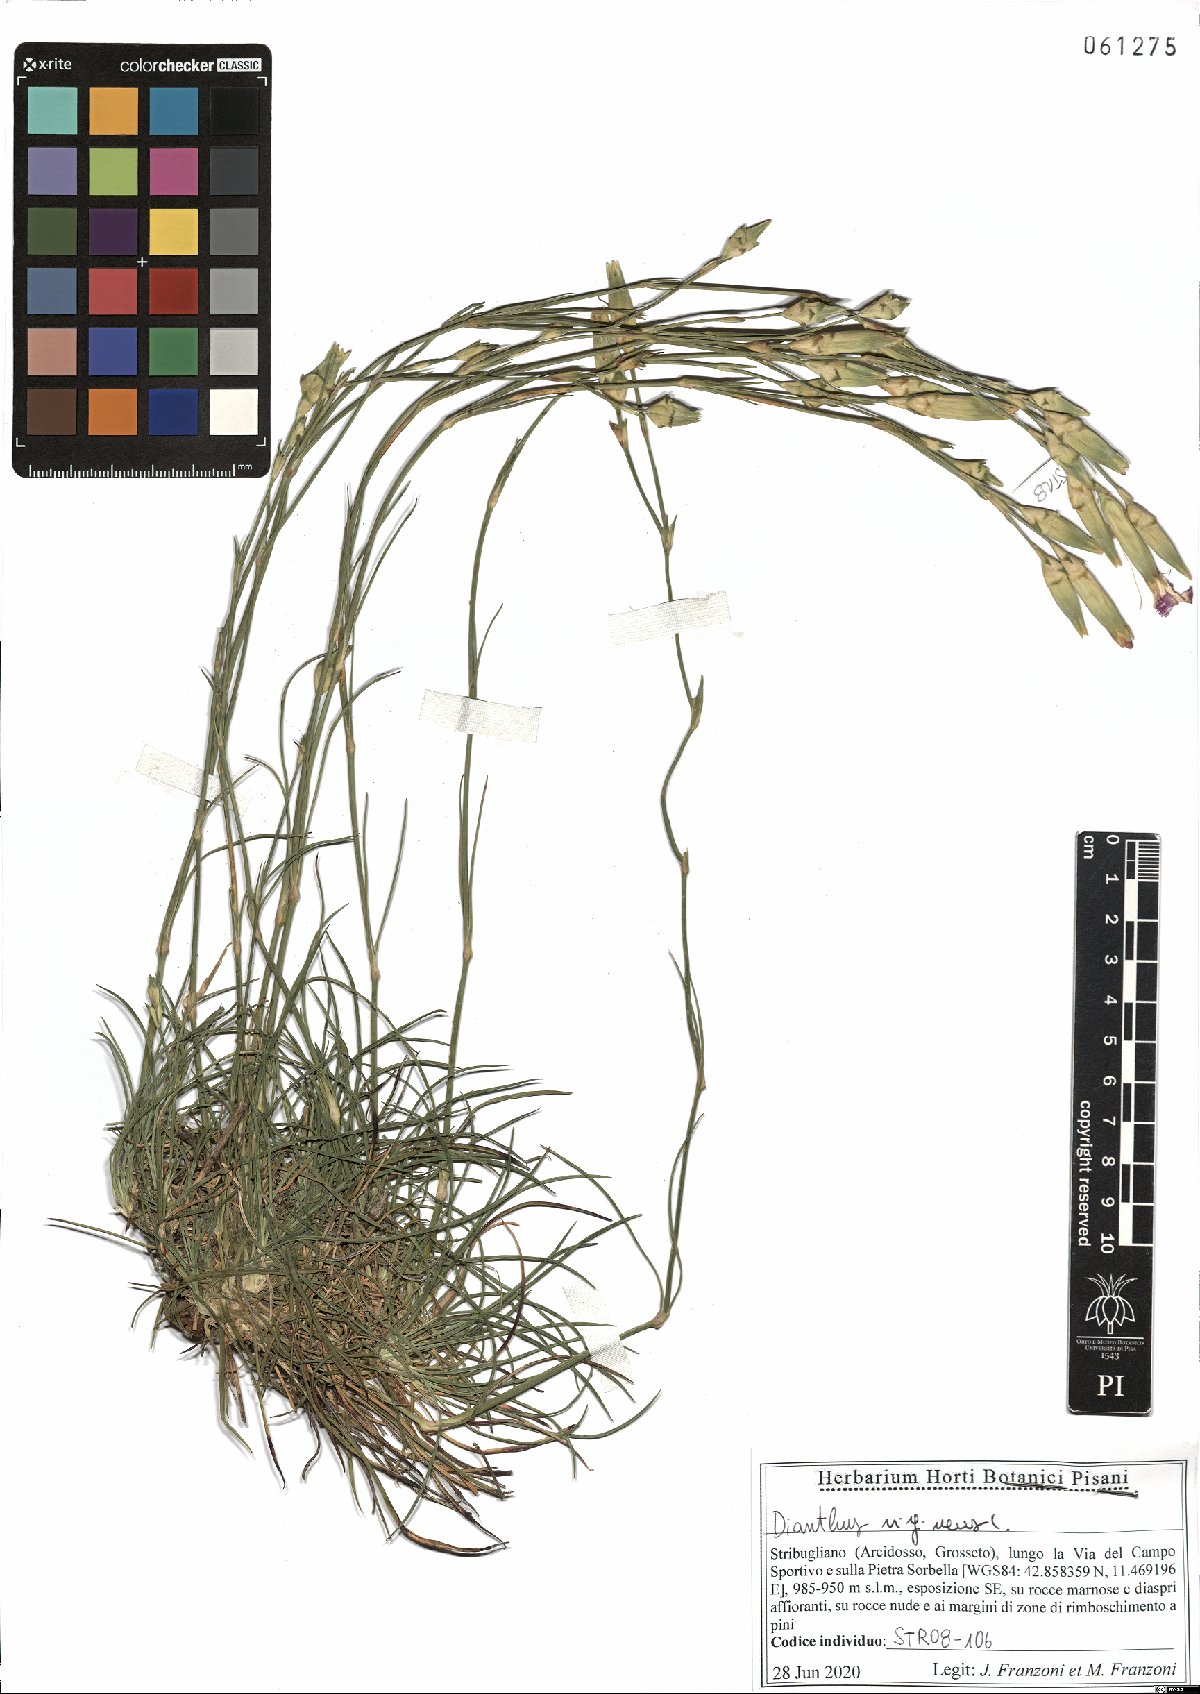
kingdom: Plantae
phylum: Tracheophyta
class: Magnoliopsida
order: Caryophyllales
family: Caryophyllaceae
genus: Dianthus
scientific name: Dianthus virgineus
